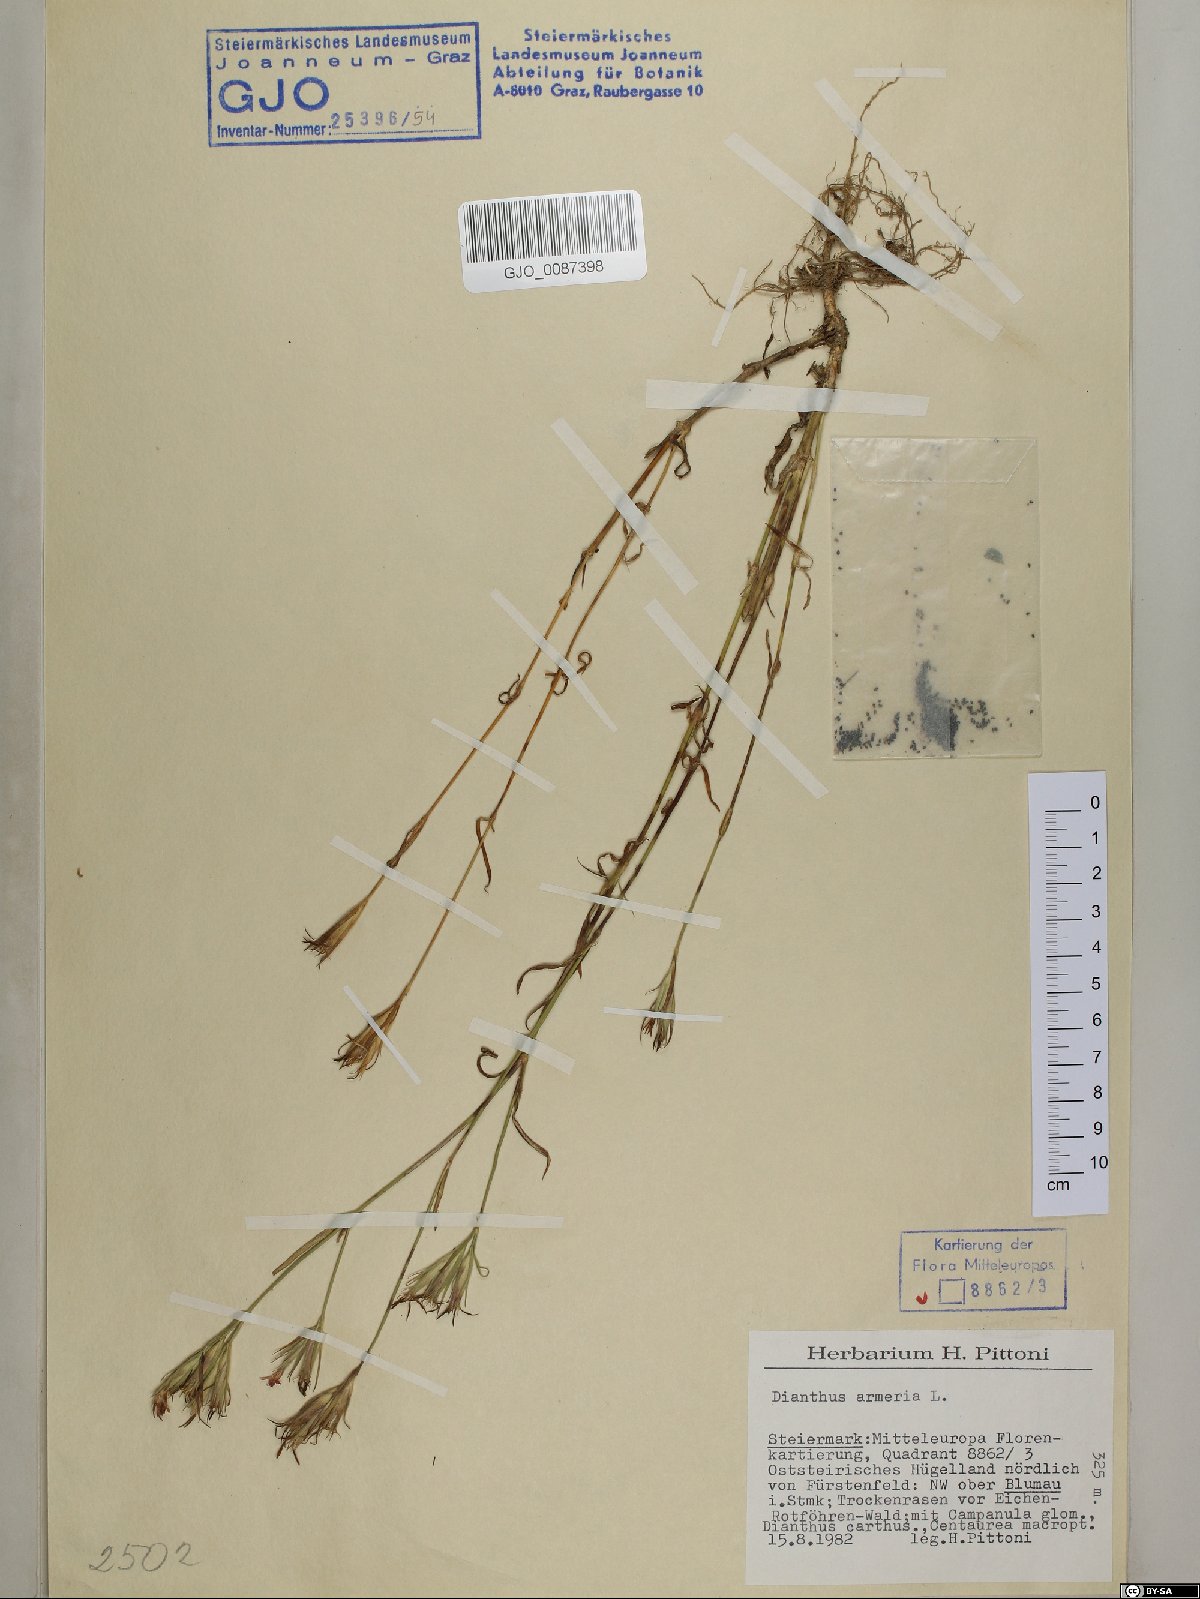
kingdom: Plantae
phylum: Tracheophyta
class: Magnoliopsida
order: Caryophyllales
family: Caryophyllaceae
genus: Dianthus
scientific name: Dianthus armeria
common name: Deptford pink
